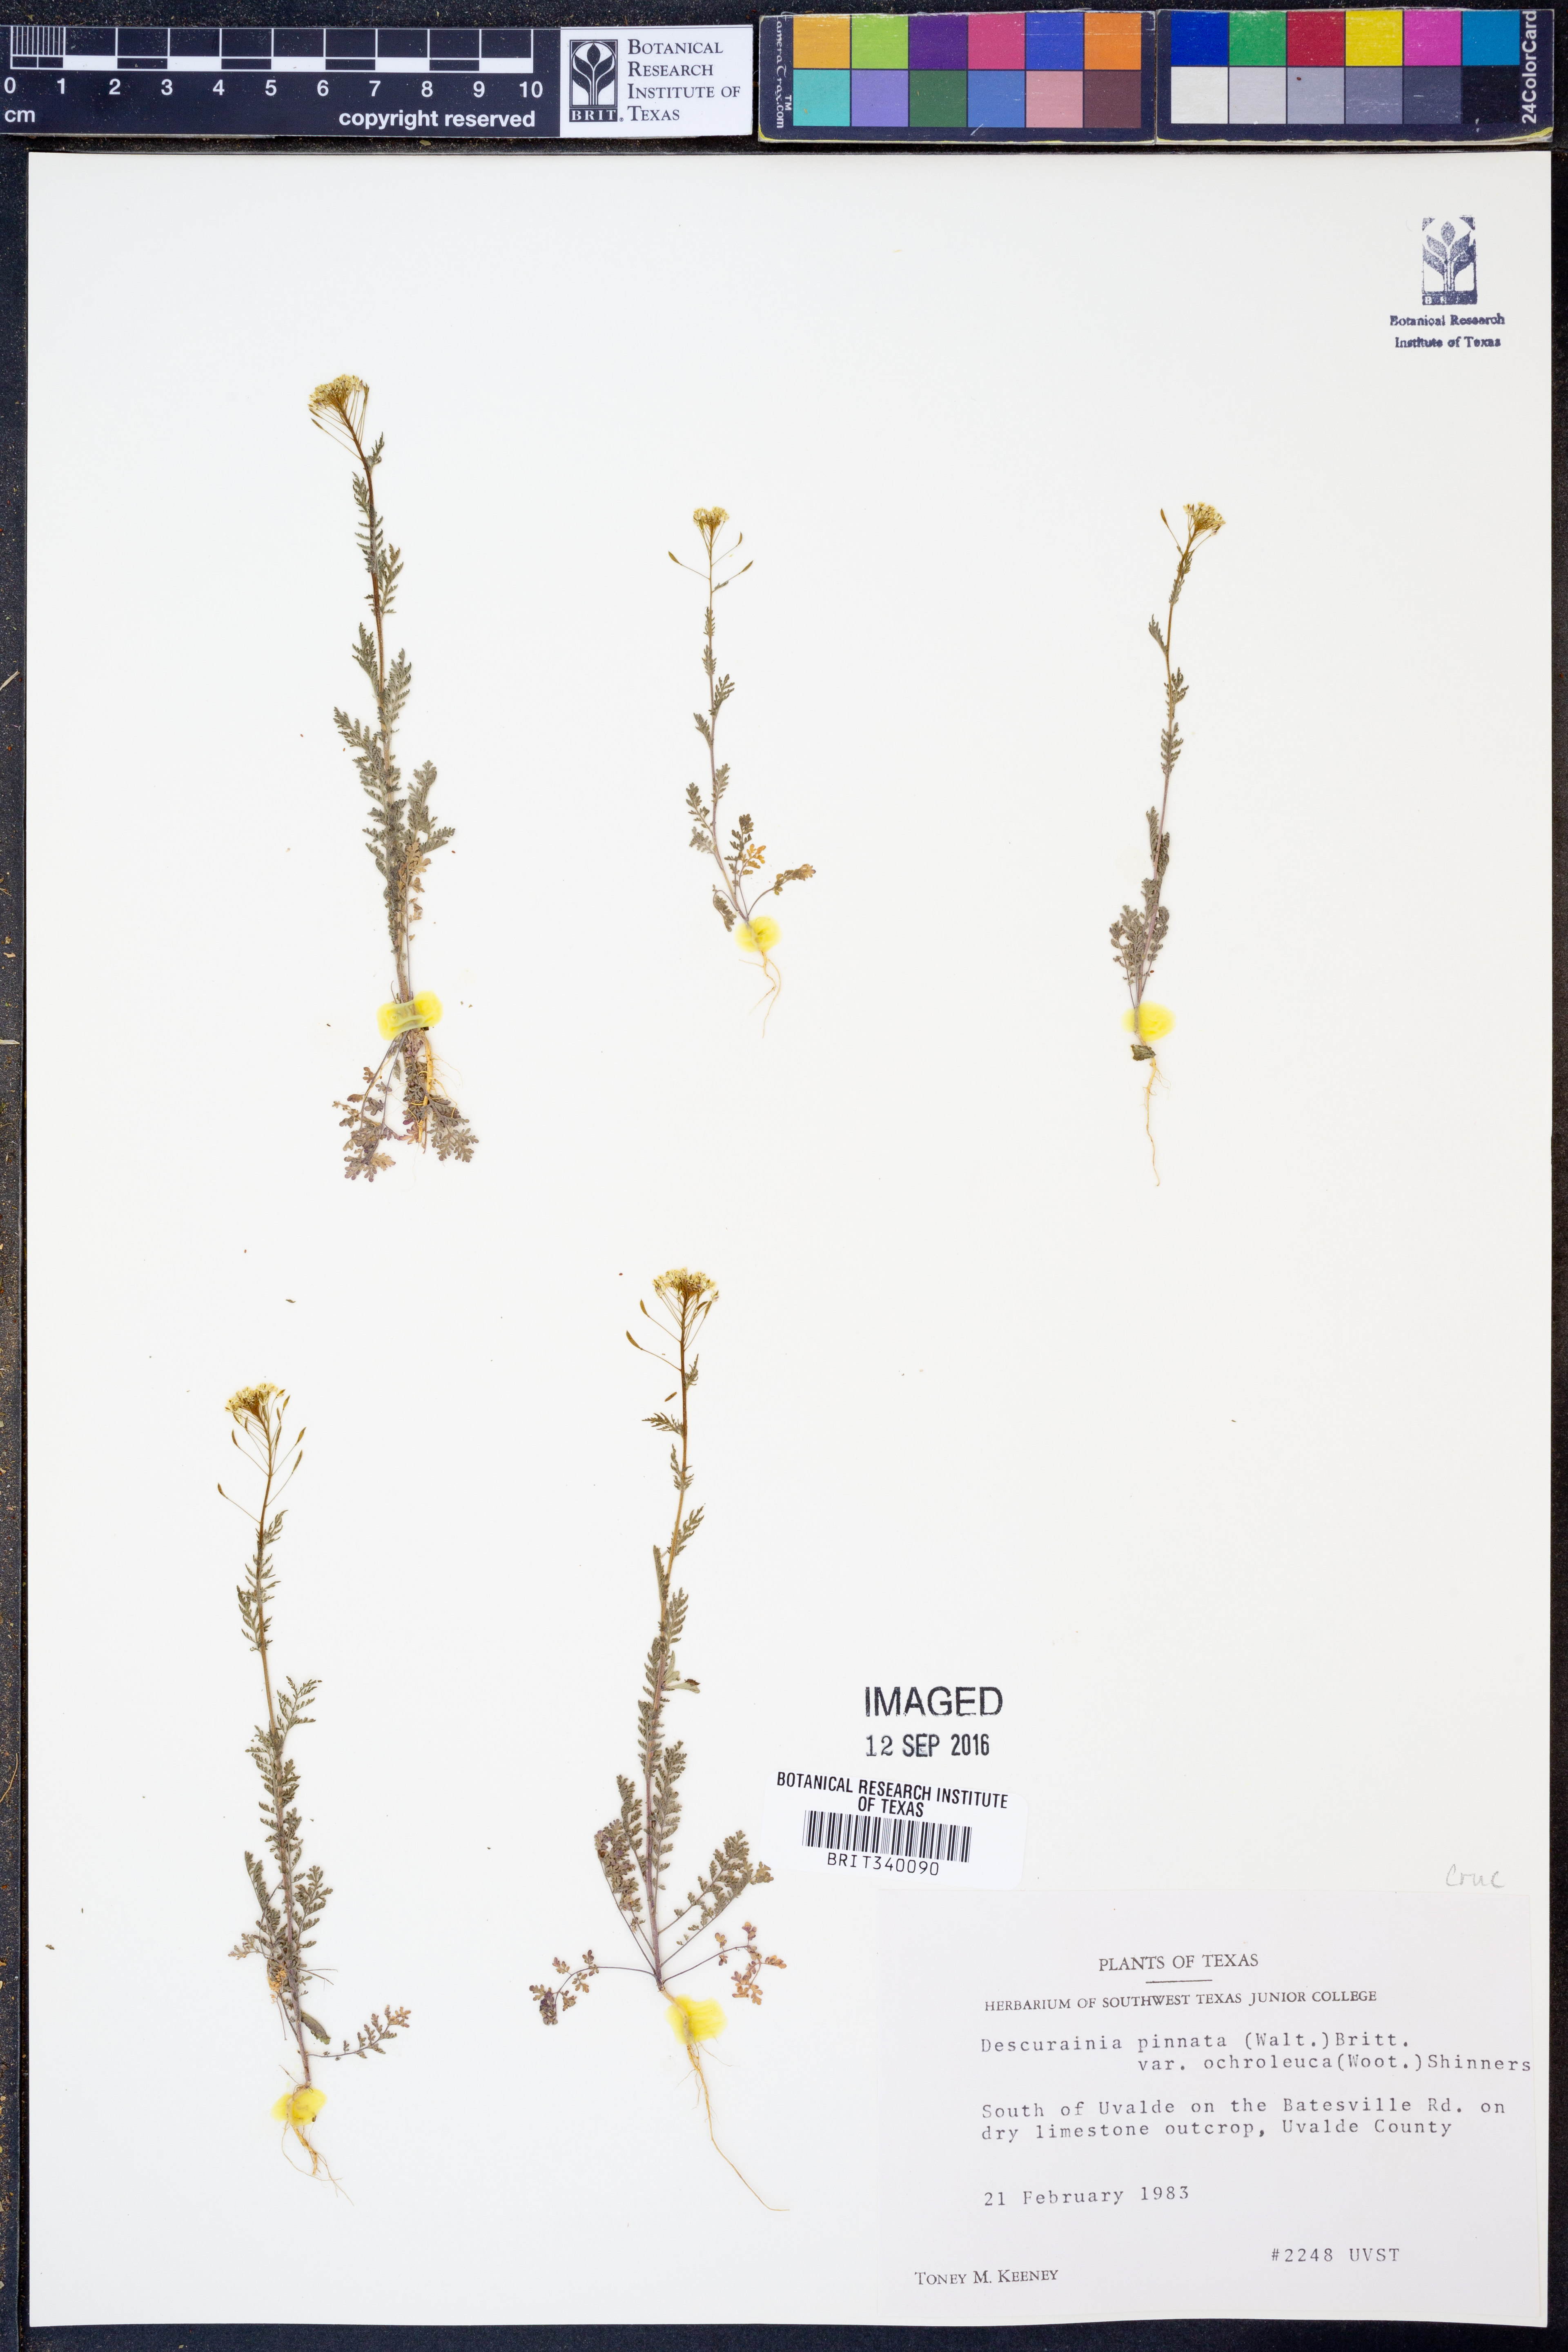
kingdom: Plantae
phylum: Tracheophyta
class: Magnoliopsida
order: Brassicales
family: Brassicaceae
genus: Descurainia
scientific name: Descurainia pinnata
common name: Western tansy mustard
